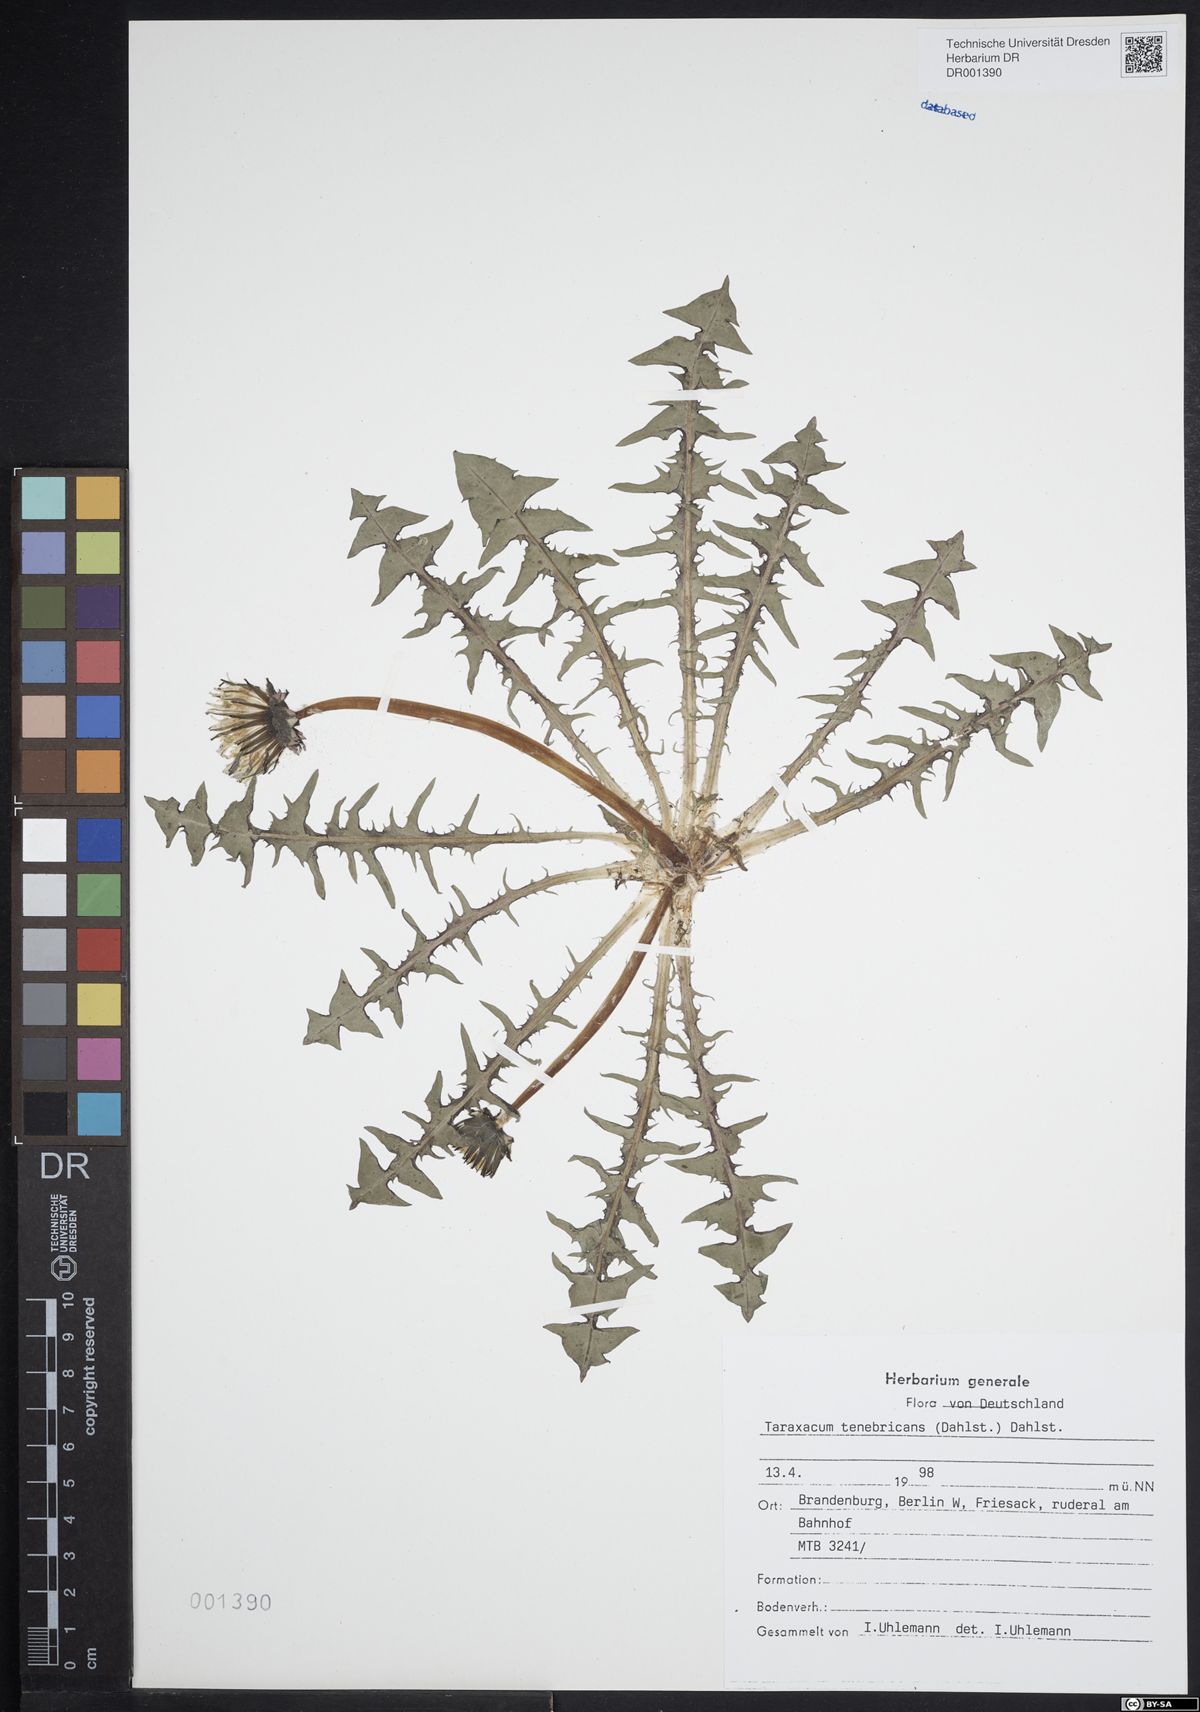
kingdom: Plantae
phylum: Tracheophyta
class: Magnoliopsida
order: Asterales
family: Asteraceae
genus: Taraxacum
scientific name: Taraxacum tenebricans
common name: Shiny-leaved dandelion
